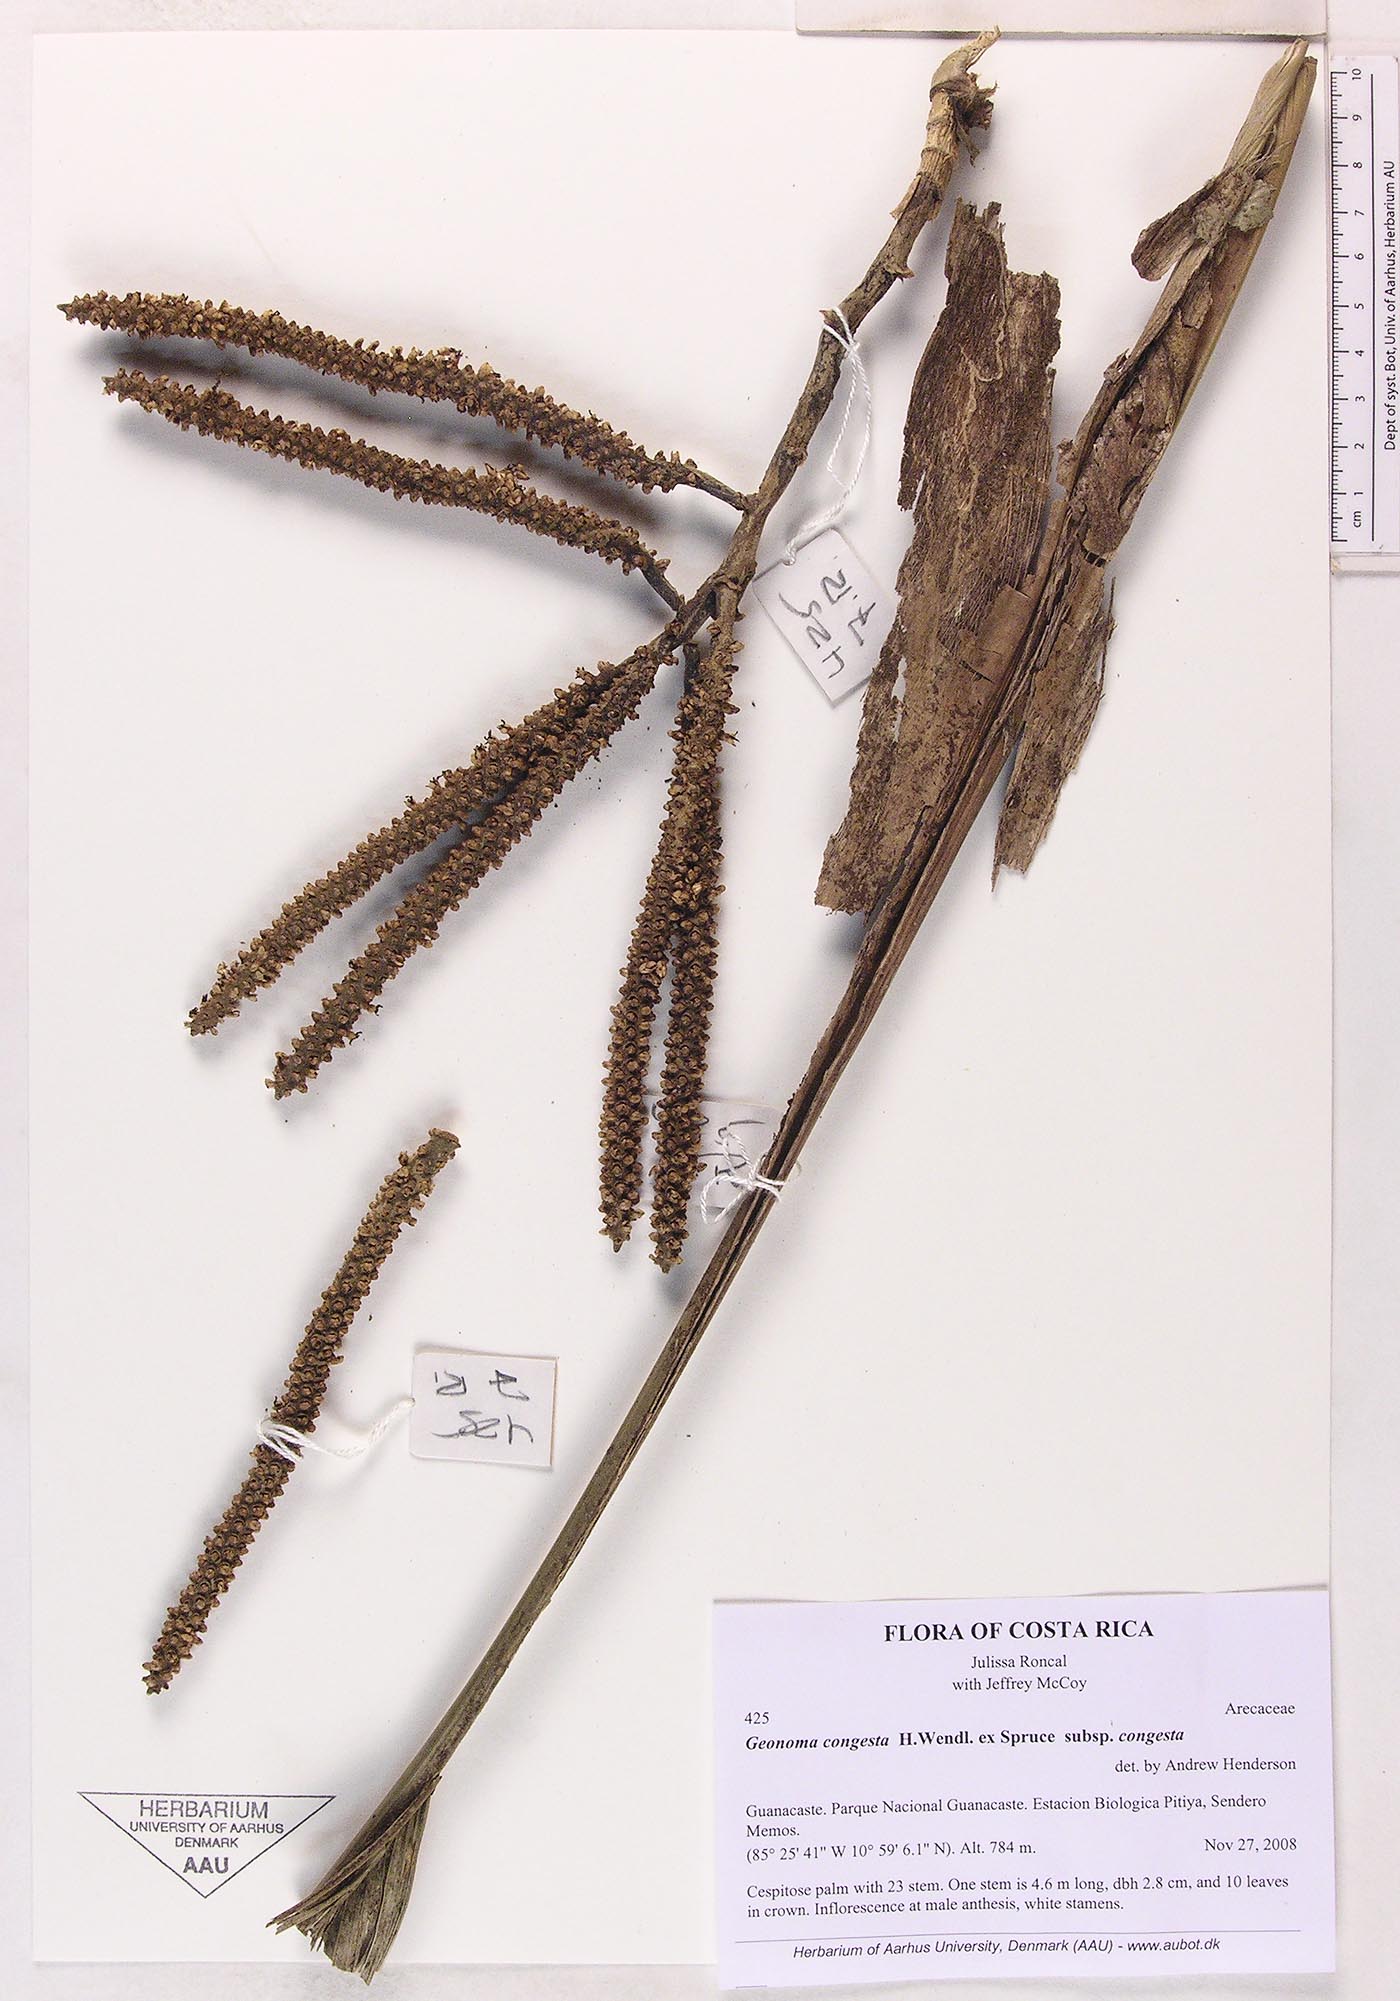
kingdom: Plantae
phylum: Tracheophyta
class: Liliopsida
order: Arecales
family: Arecaceae
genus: Geonoma
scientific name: Geonoma congesta
